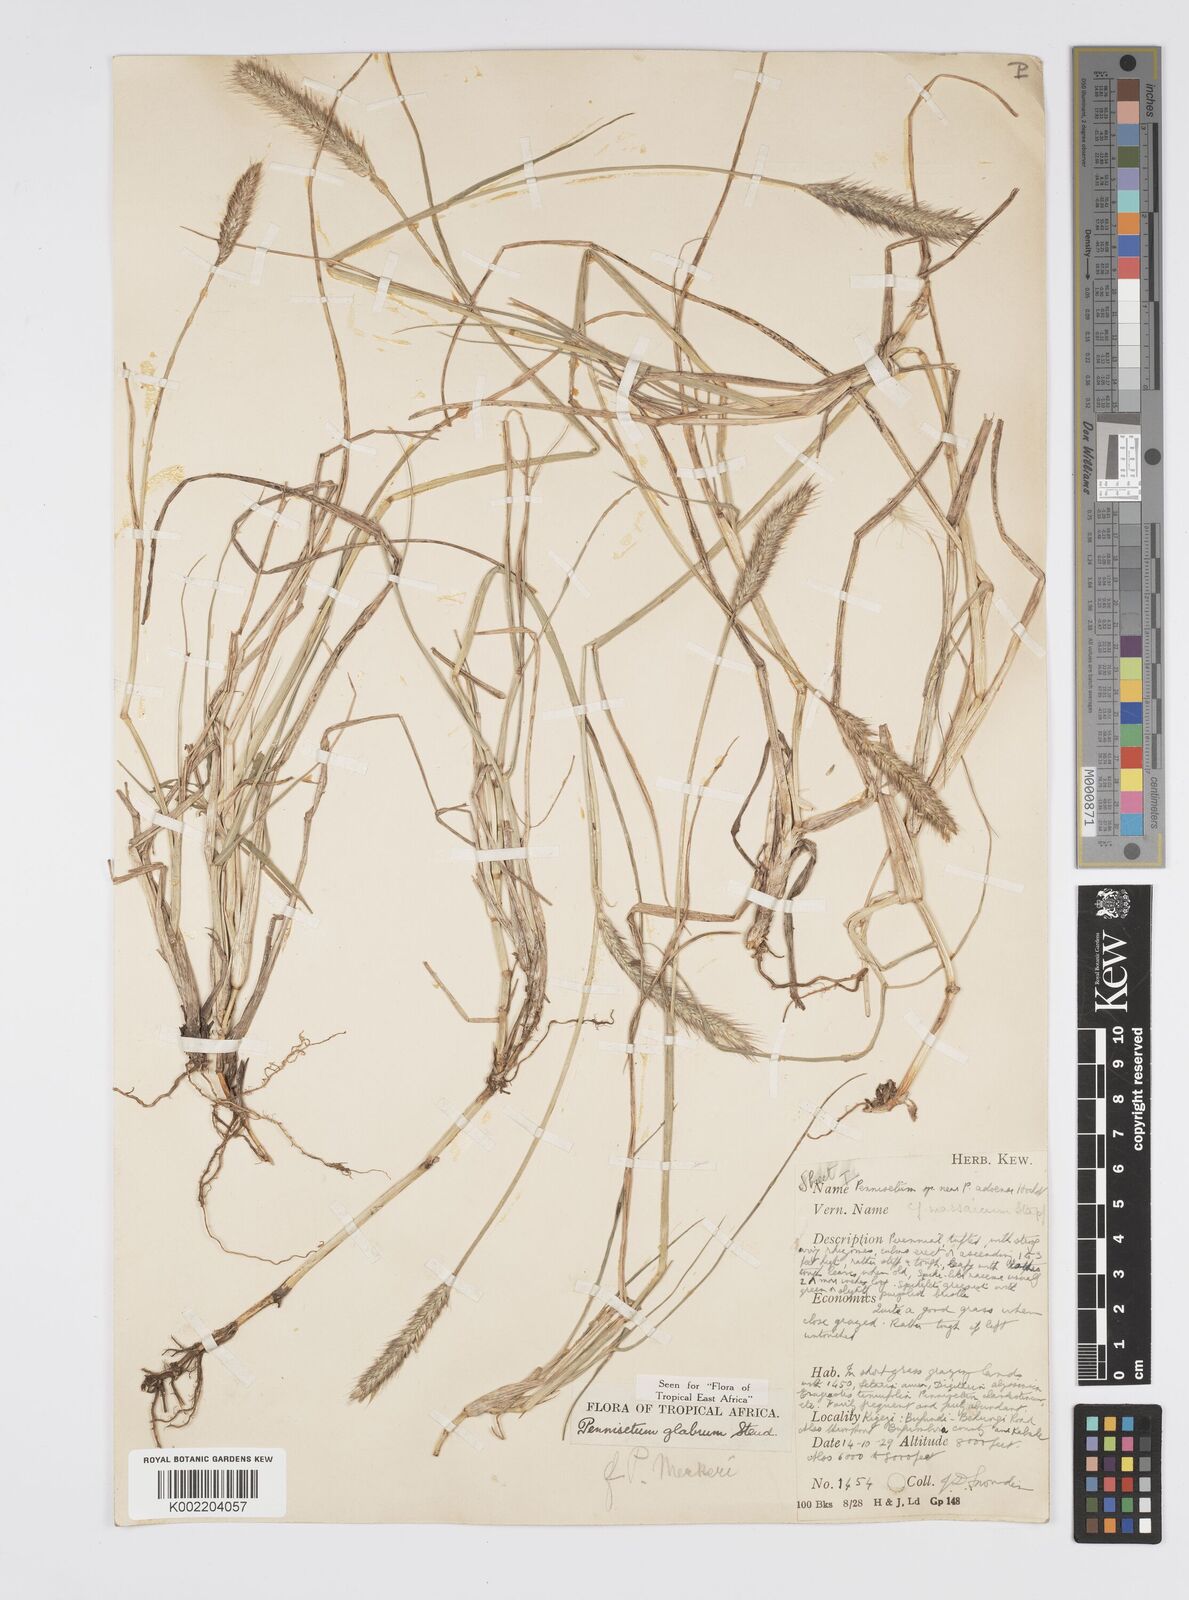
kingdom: Plantae
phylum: Tracheophyta
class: Liliopsida
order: Poales
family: Poaceae
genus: Cenchrus
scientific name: Cenchrus geniculatus
